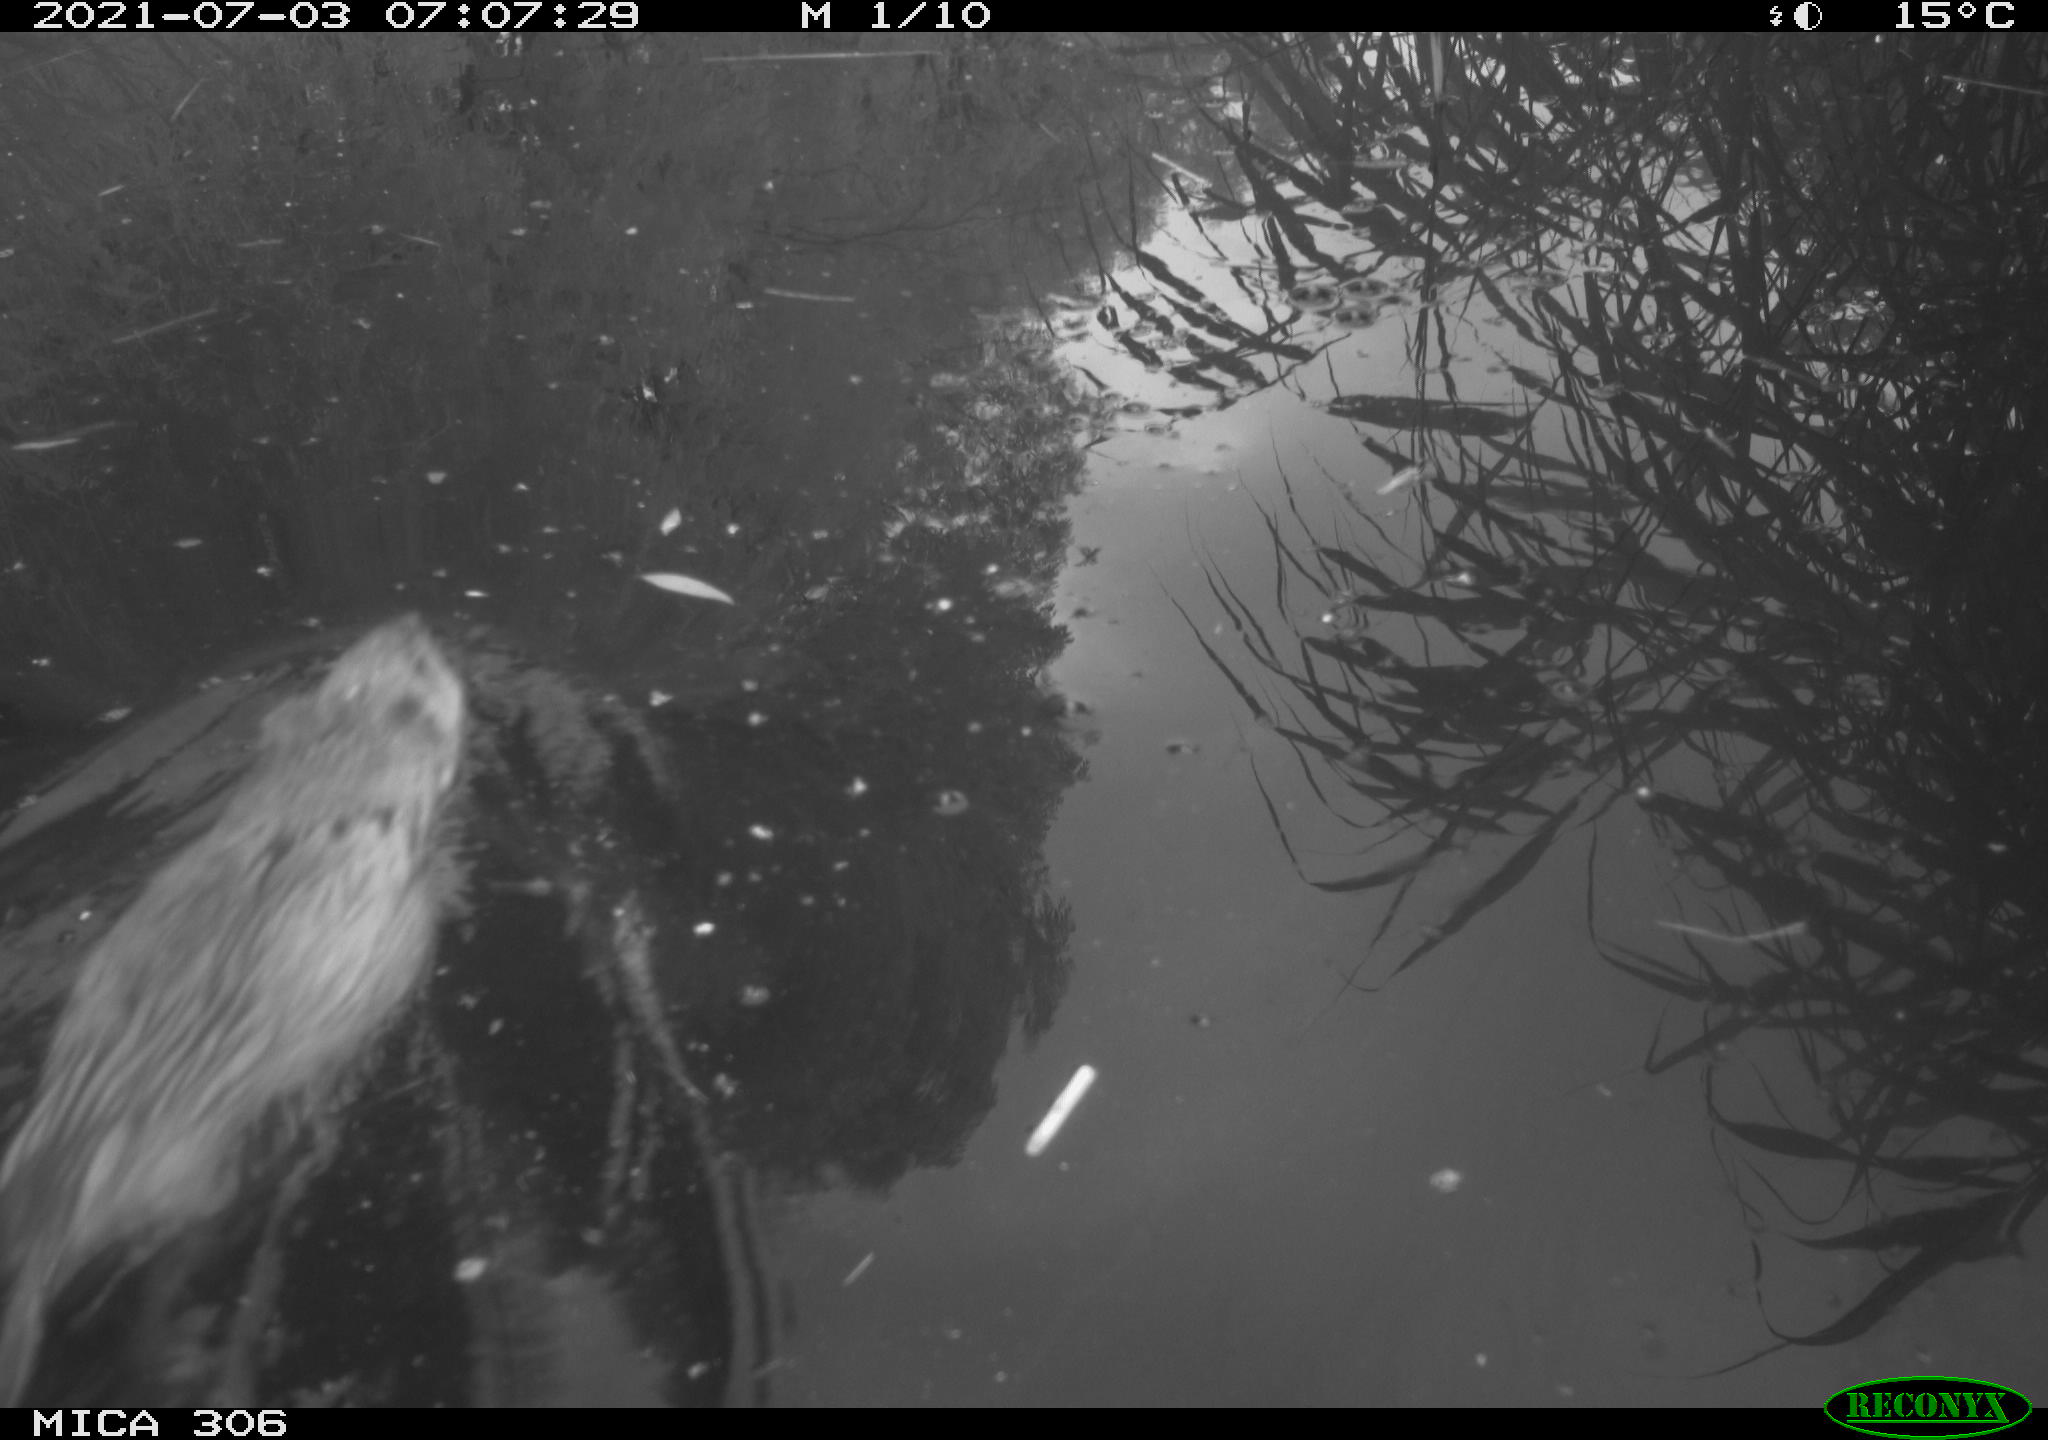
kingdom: Animalia
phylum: Chordata
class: Mammalia
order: Rodentia
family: Cricetidae
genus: Ondatra
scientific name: Ondatra zibethicus
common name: Muskrat
